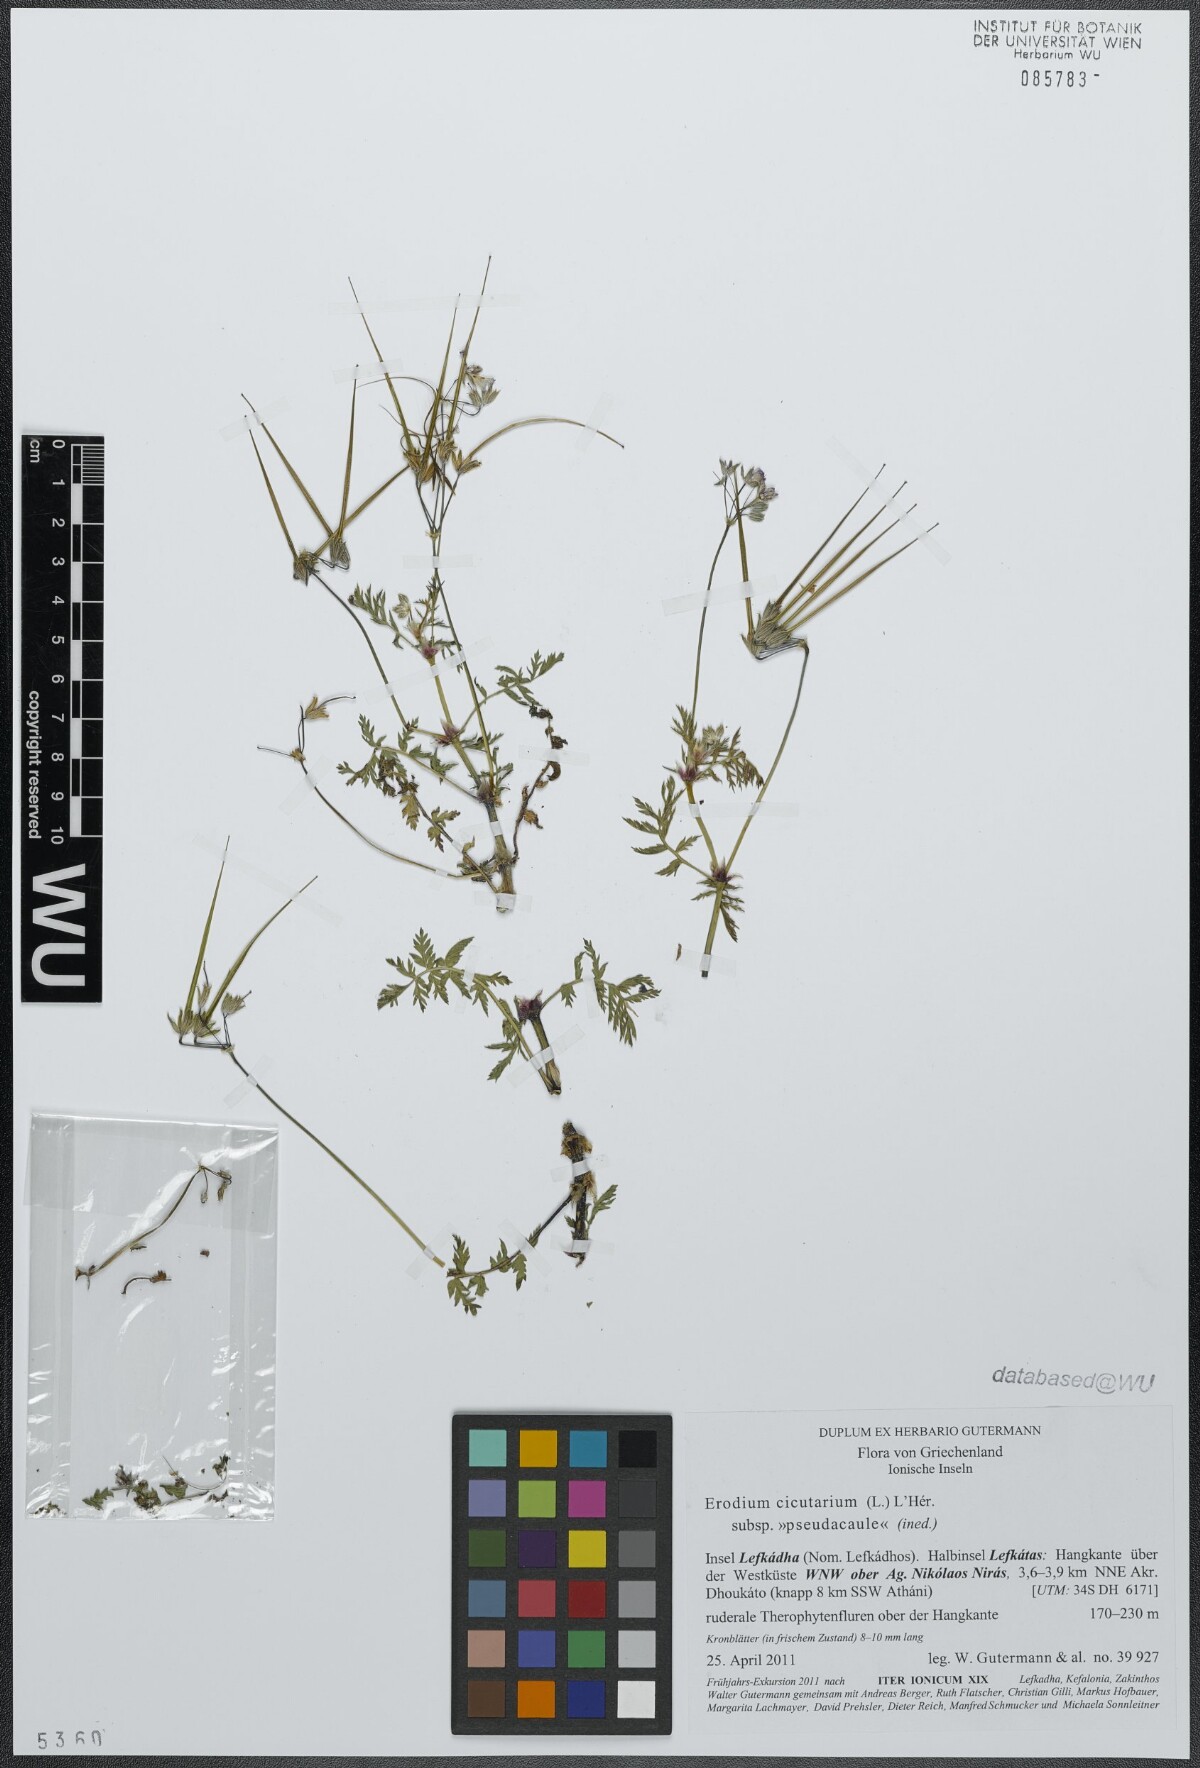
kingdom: Plantae
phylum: Tracheophyta
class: Magnoliopsida
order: Geraniales
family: Geraniaceae
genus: Erodium
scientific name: Erodium cicutarium
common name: Common stork's-bill
